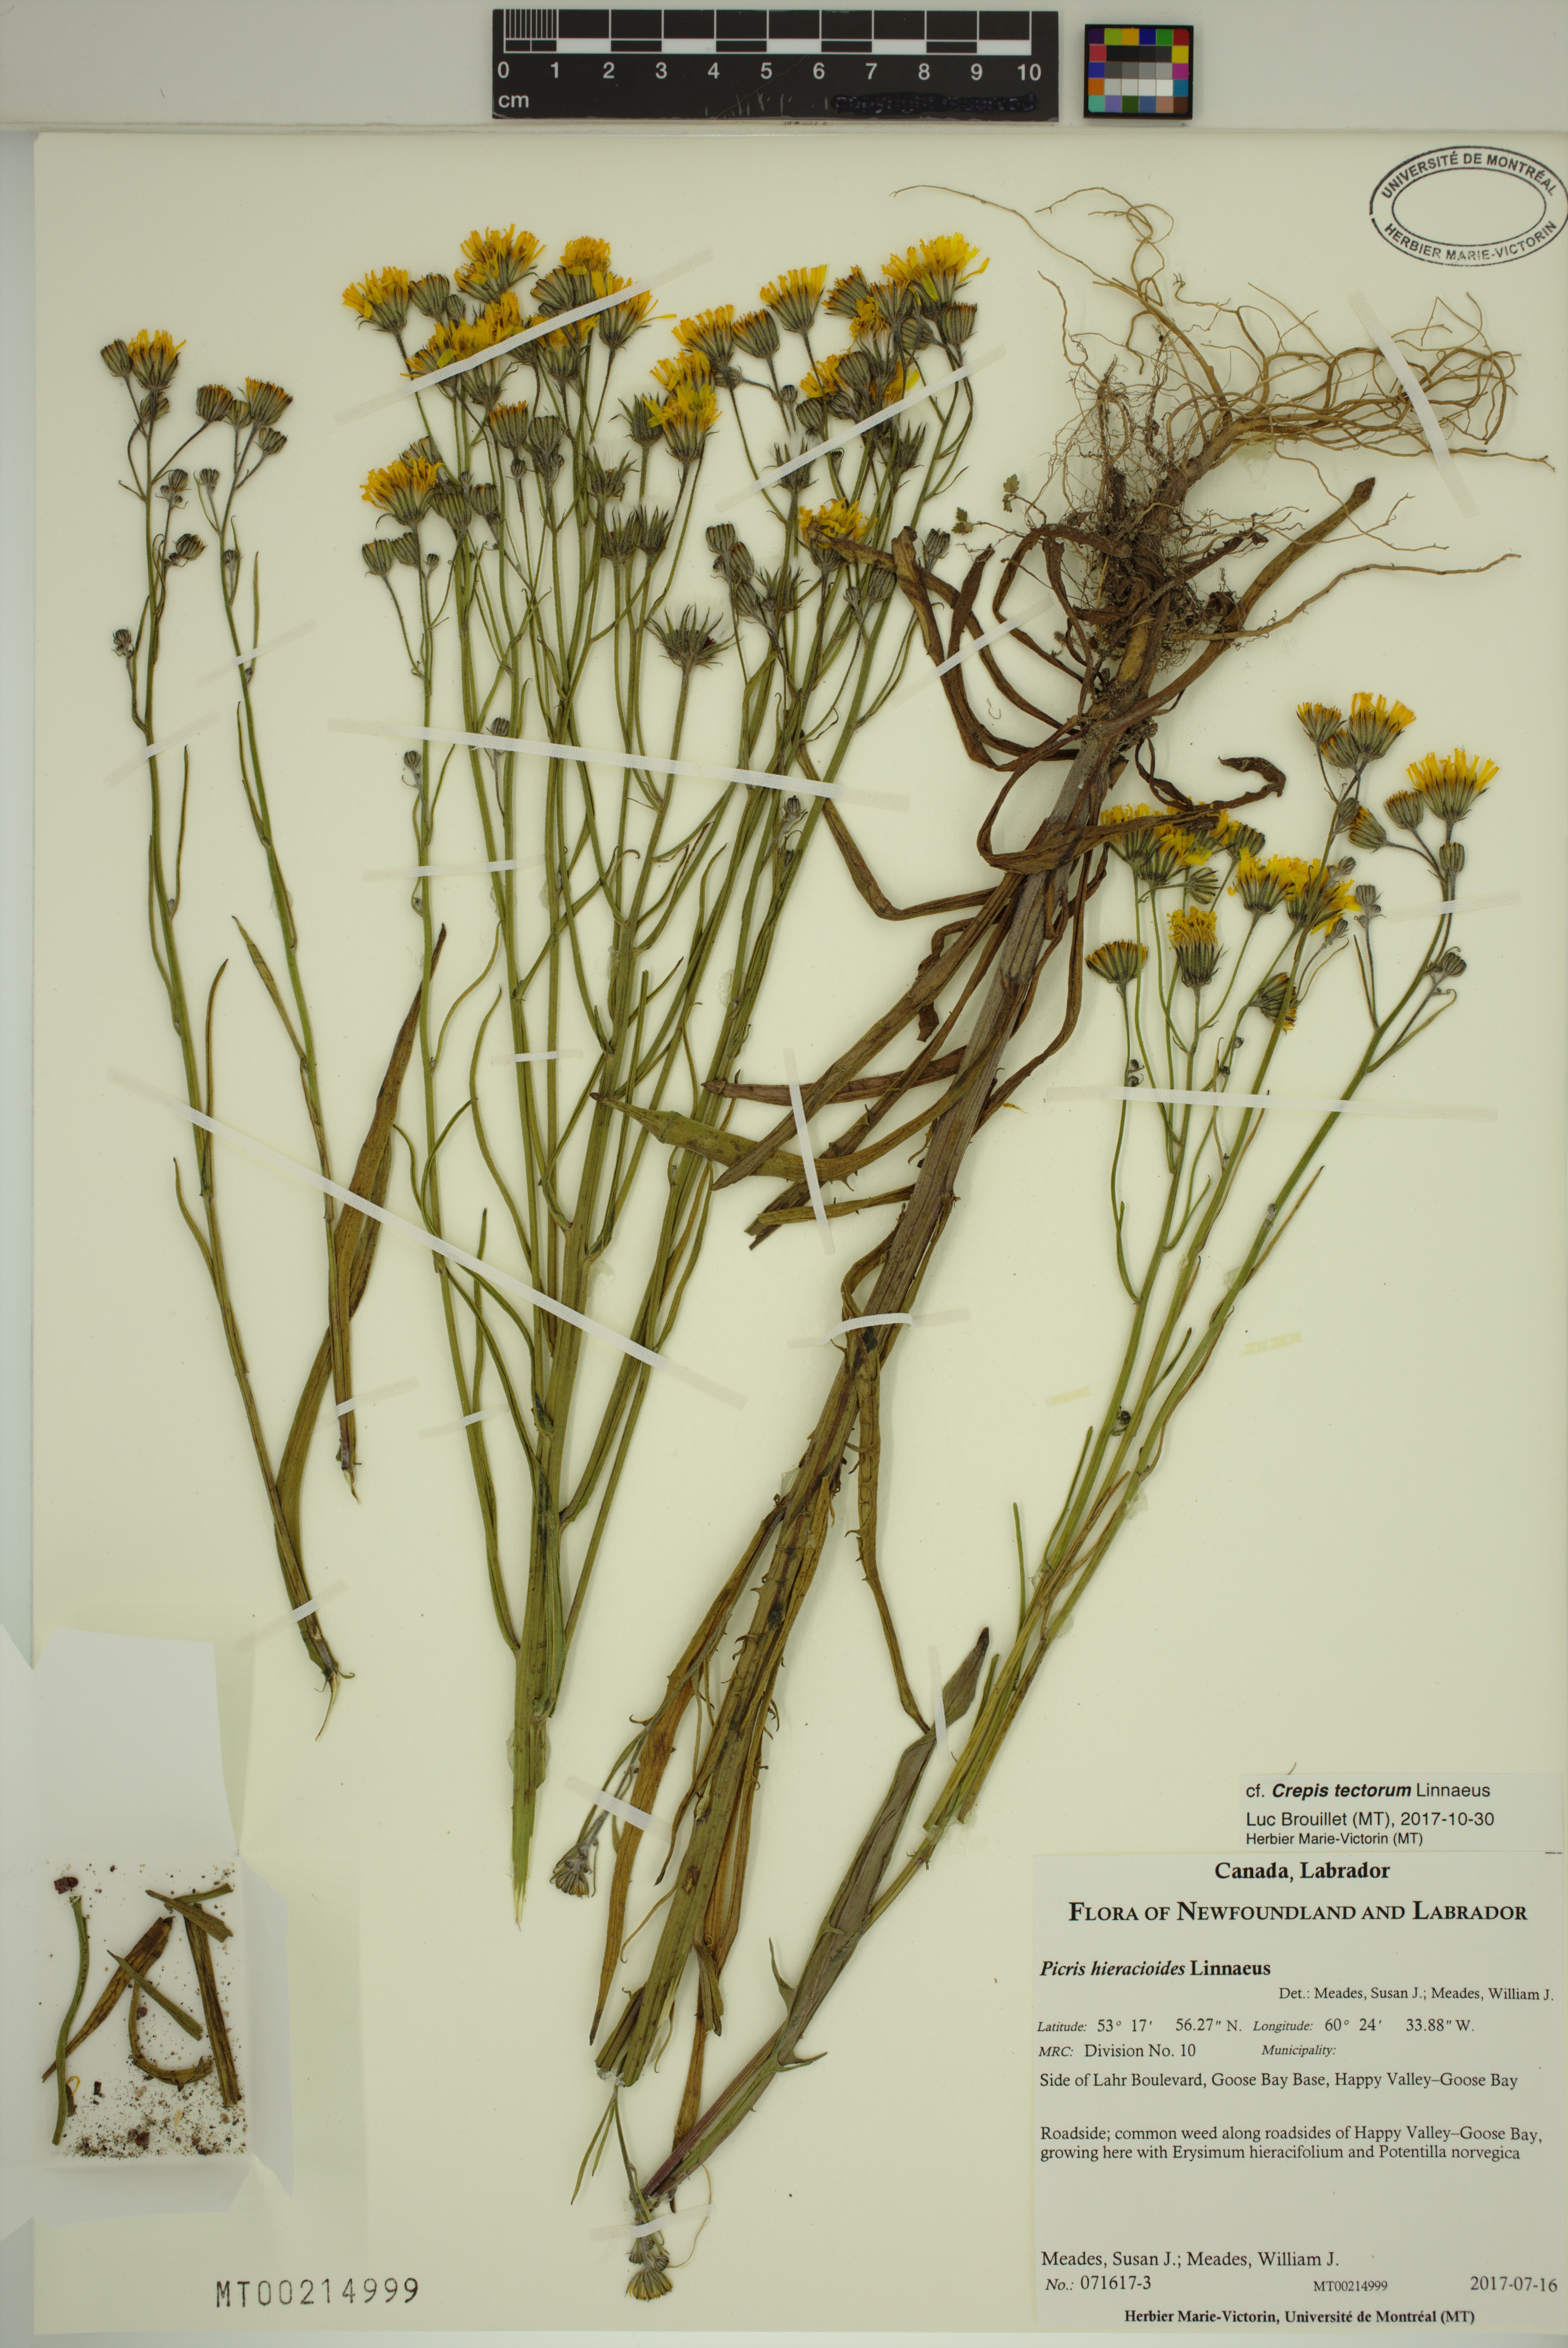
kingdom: Plantae
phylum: Tracheophyta
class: Magnoliopsida
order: Asterales
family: Asteraceae
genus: Picris
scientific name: Picris hieracioides
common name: Hawkweed oxtongue
